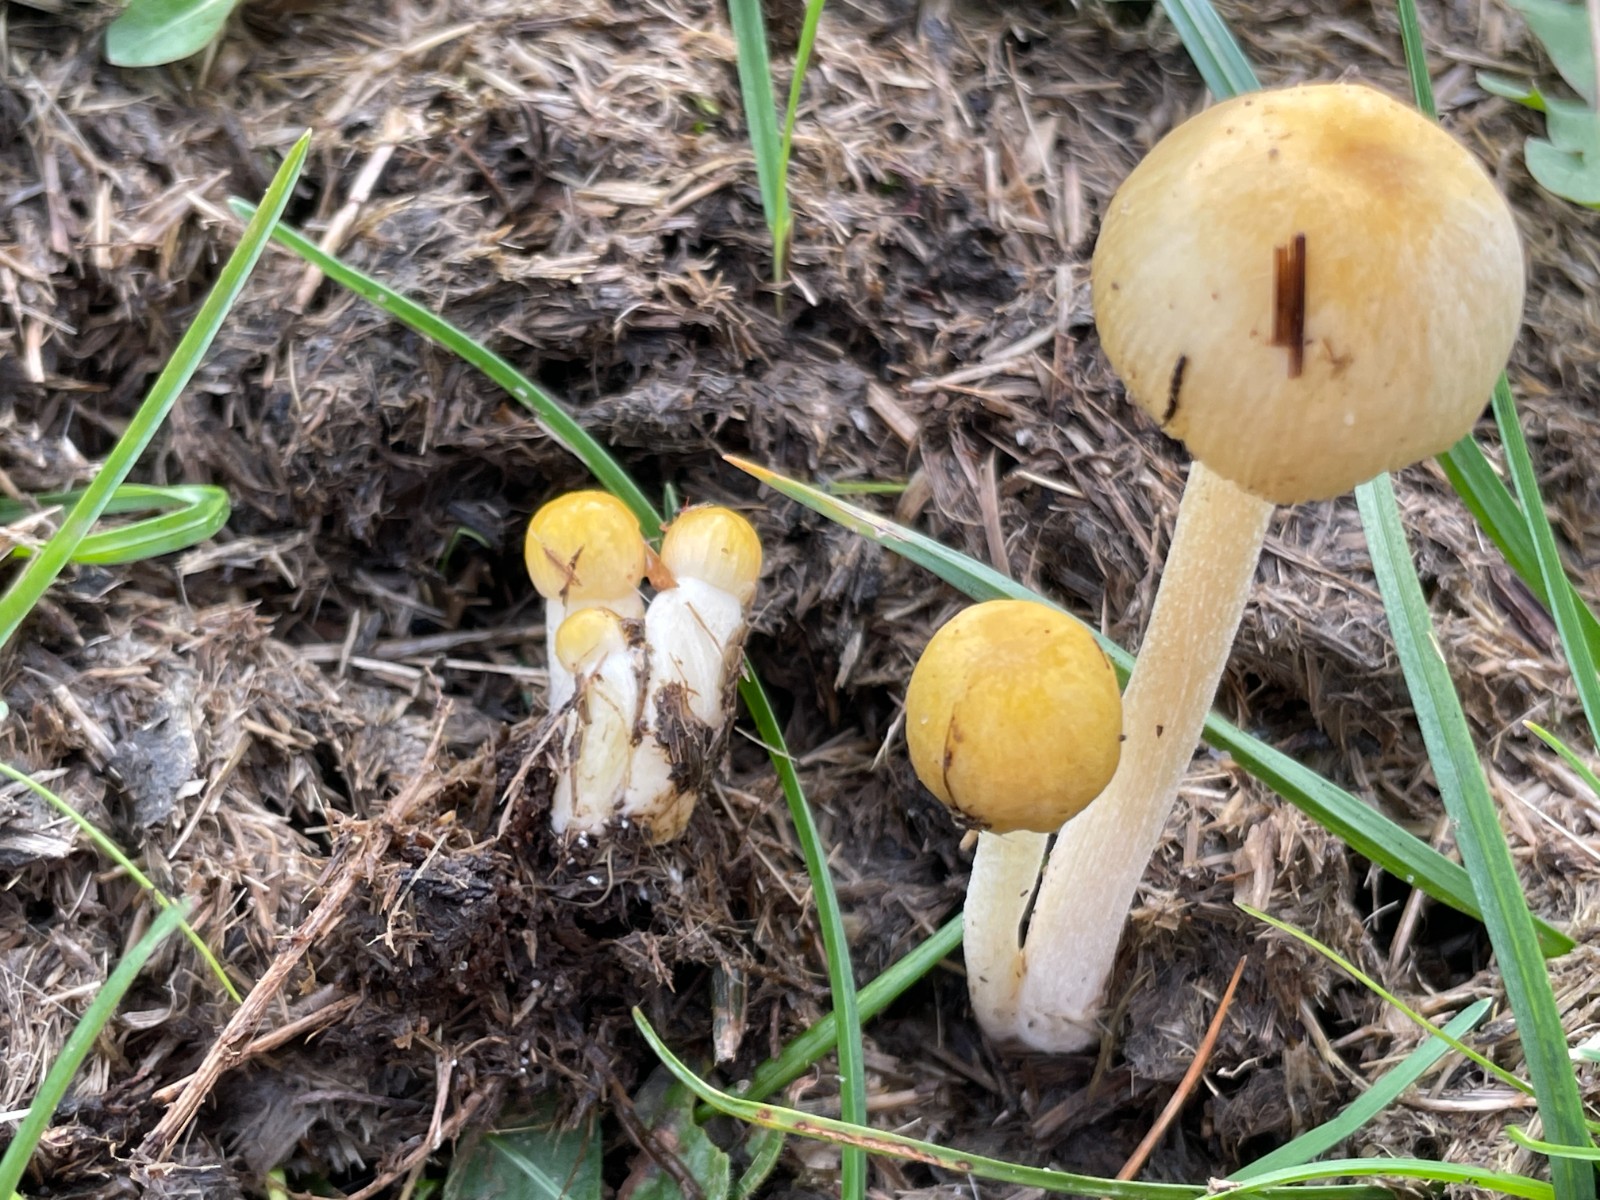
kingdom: Fungi
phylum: Basidiomycota
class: Agaricomycetes
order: Agaricales
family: Bolbitiaceae
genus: Bolbitius
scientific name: Bolbitius titubans
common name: almindelig gulhat
